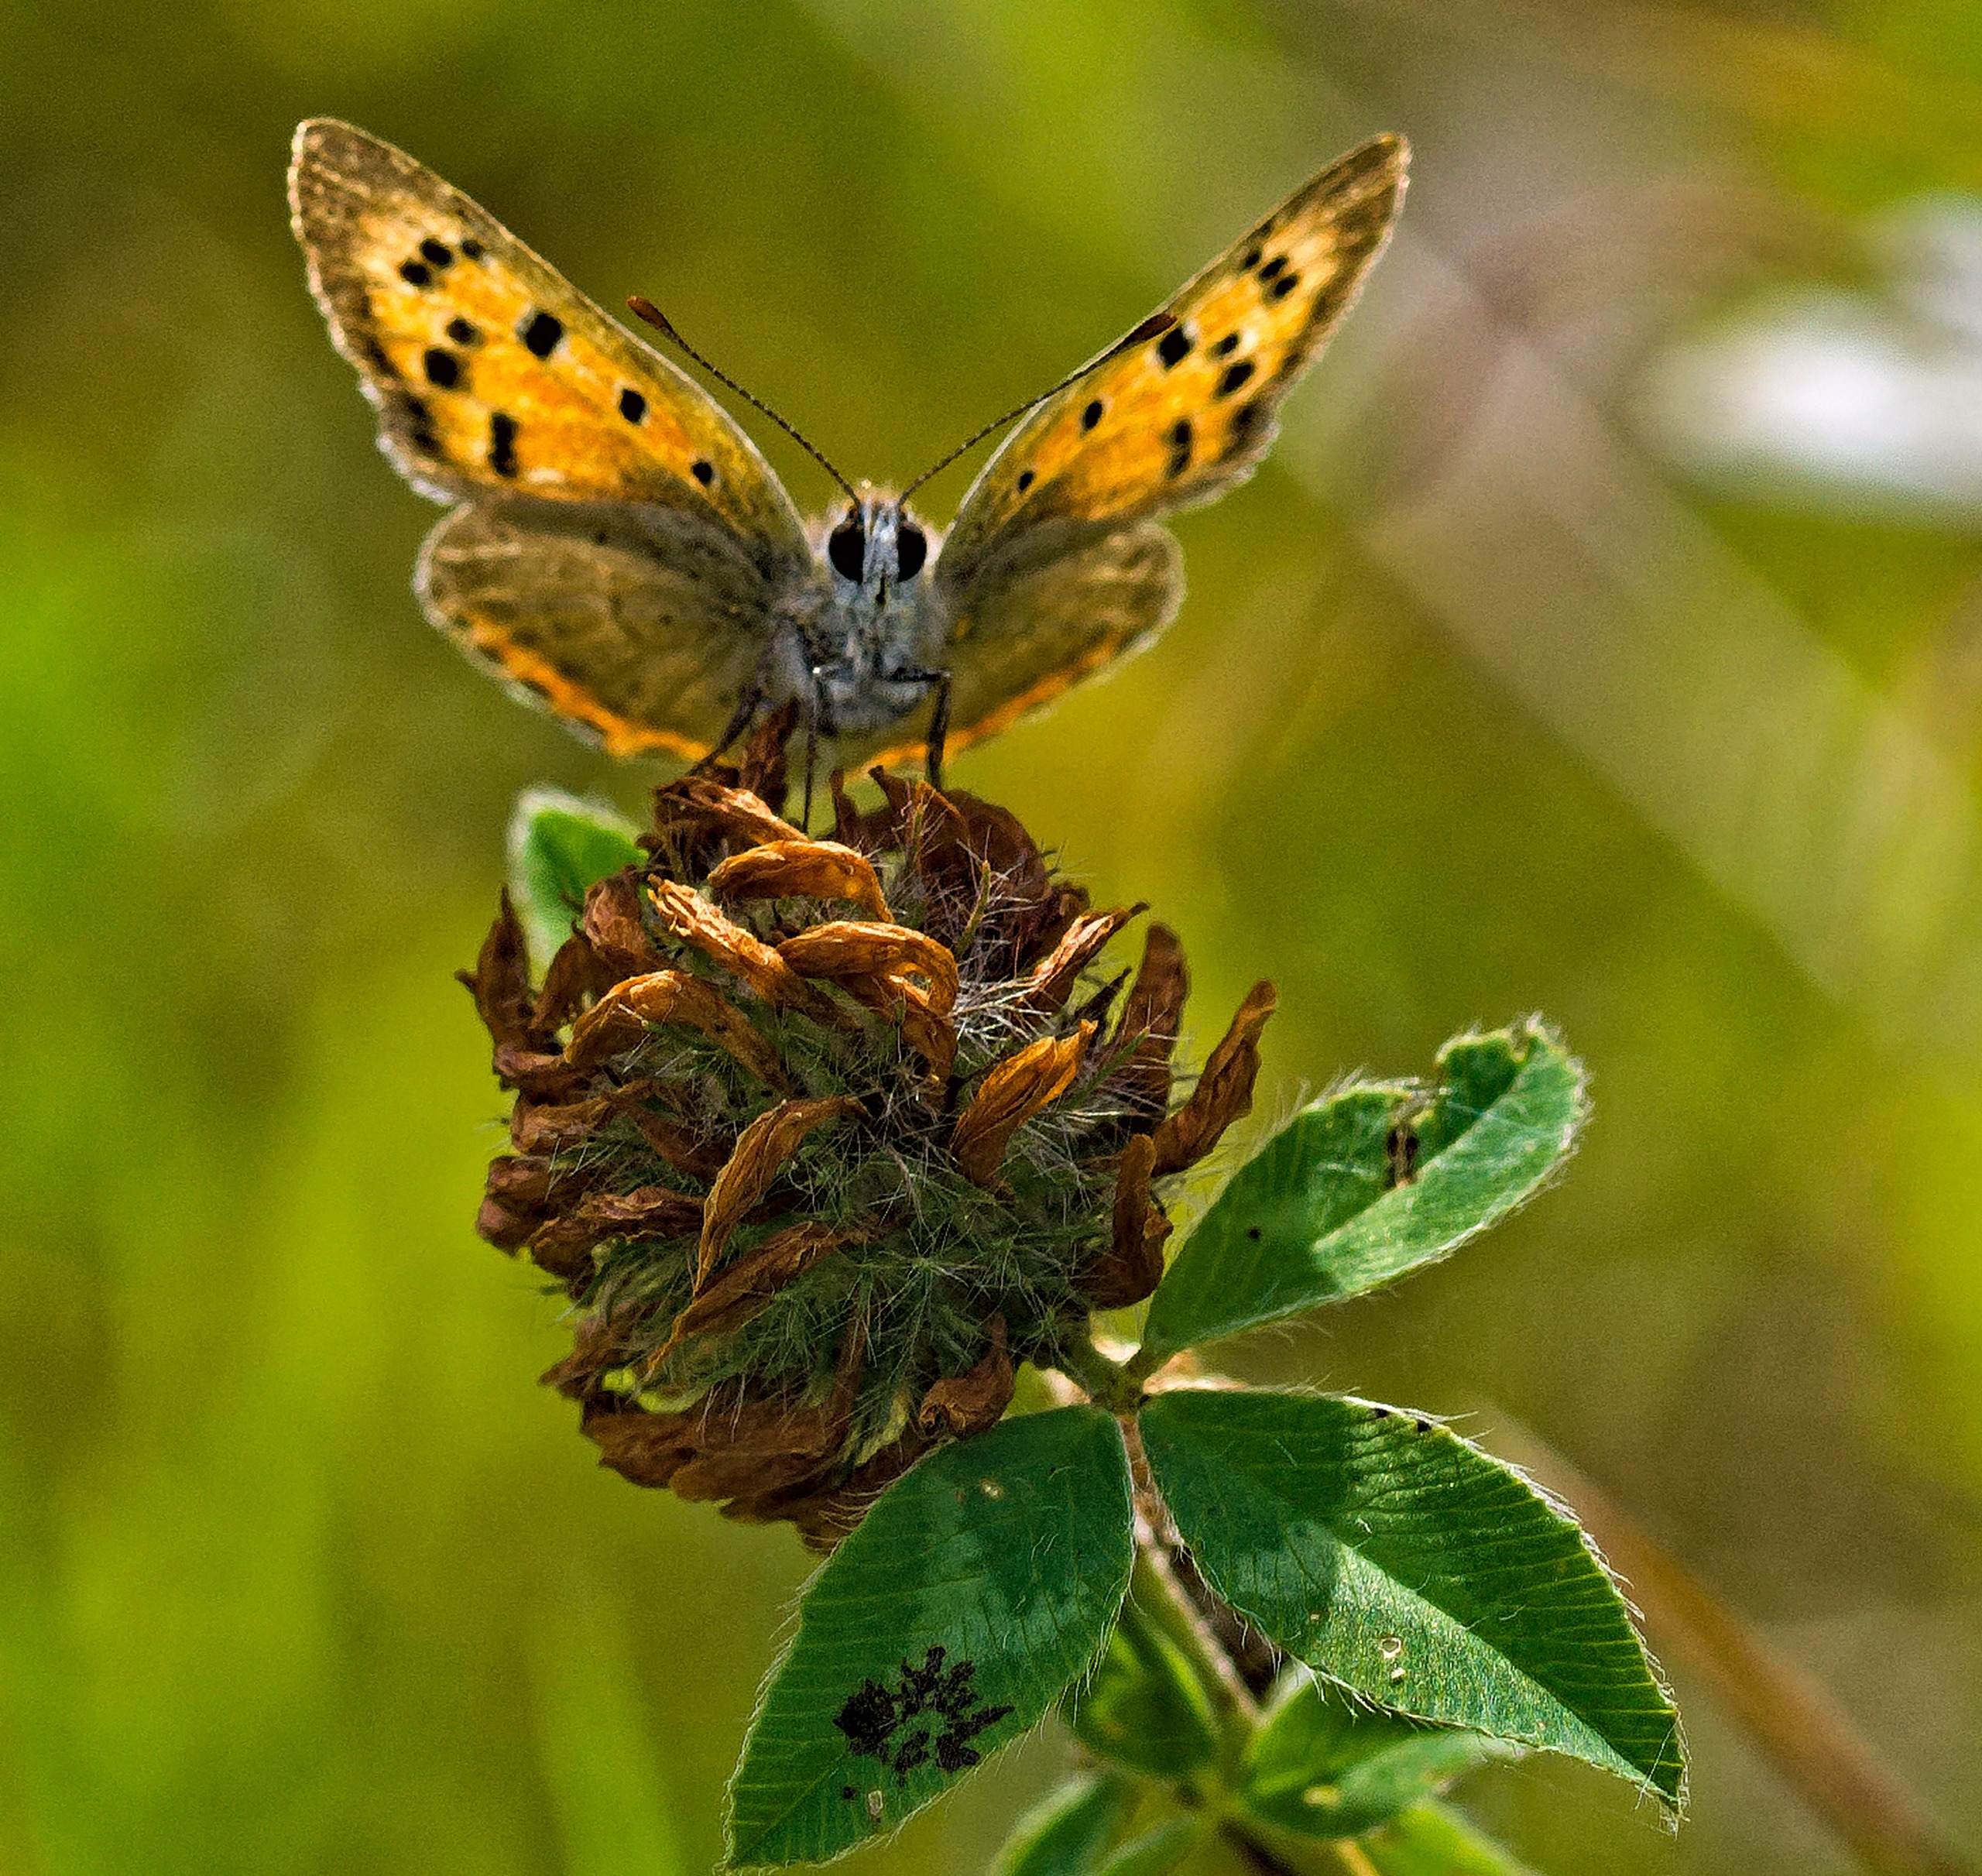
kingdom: Animalia
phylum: Arthropoda
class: Insecta
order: Lepidoptera
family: Lycaenidae
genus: Lycaena
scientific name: Lycaena phlaeas
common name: Lille ildfugl
